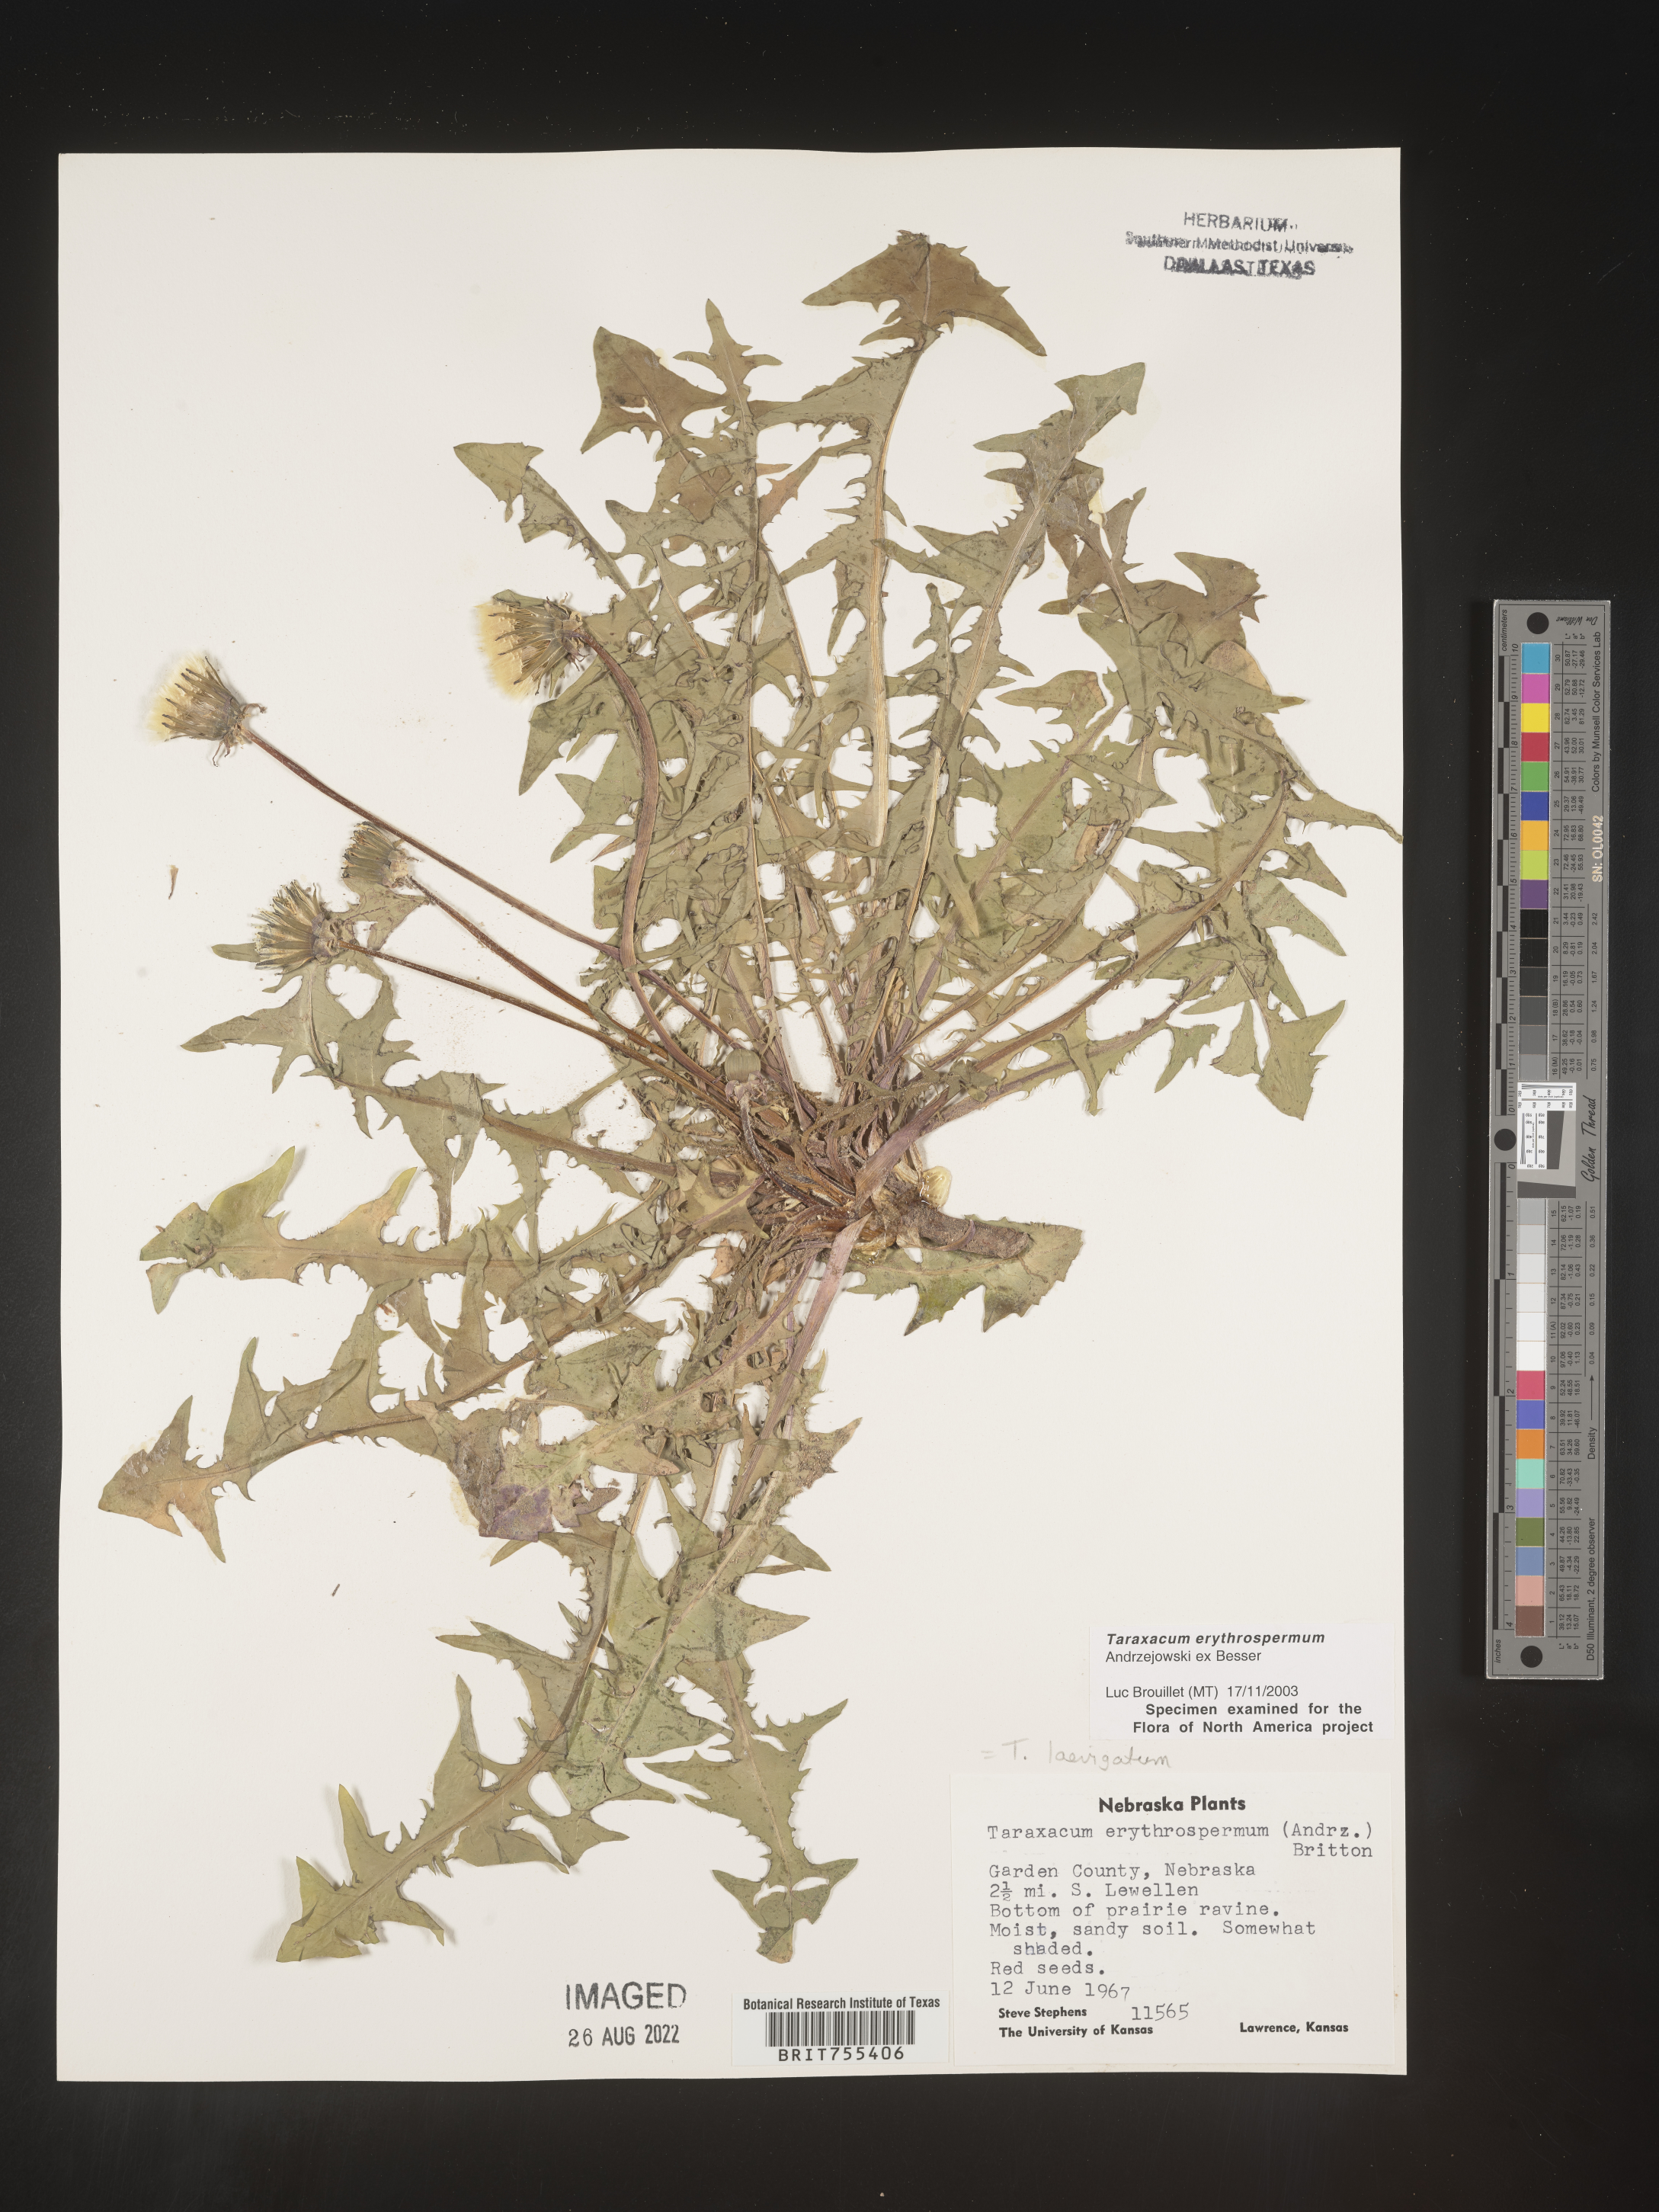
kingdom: Plantae
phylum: Tracheophyta
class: Magnoliopsida
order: Asterales
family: Asteraceae
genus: Taraxacum
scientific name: Taraxacum erythrospermum
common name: Rock dandelion
